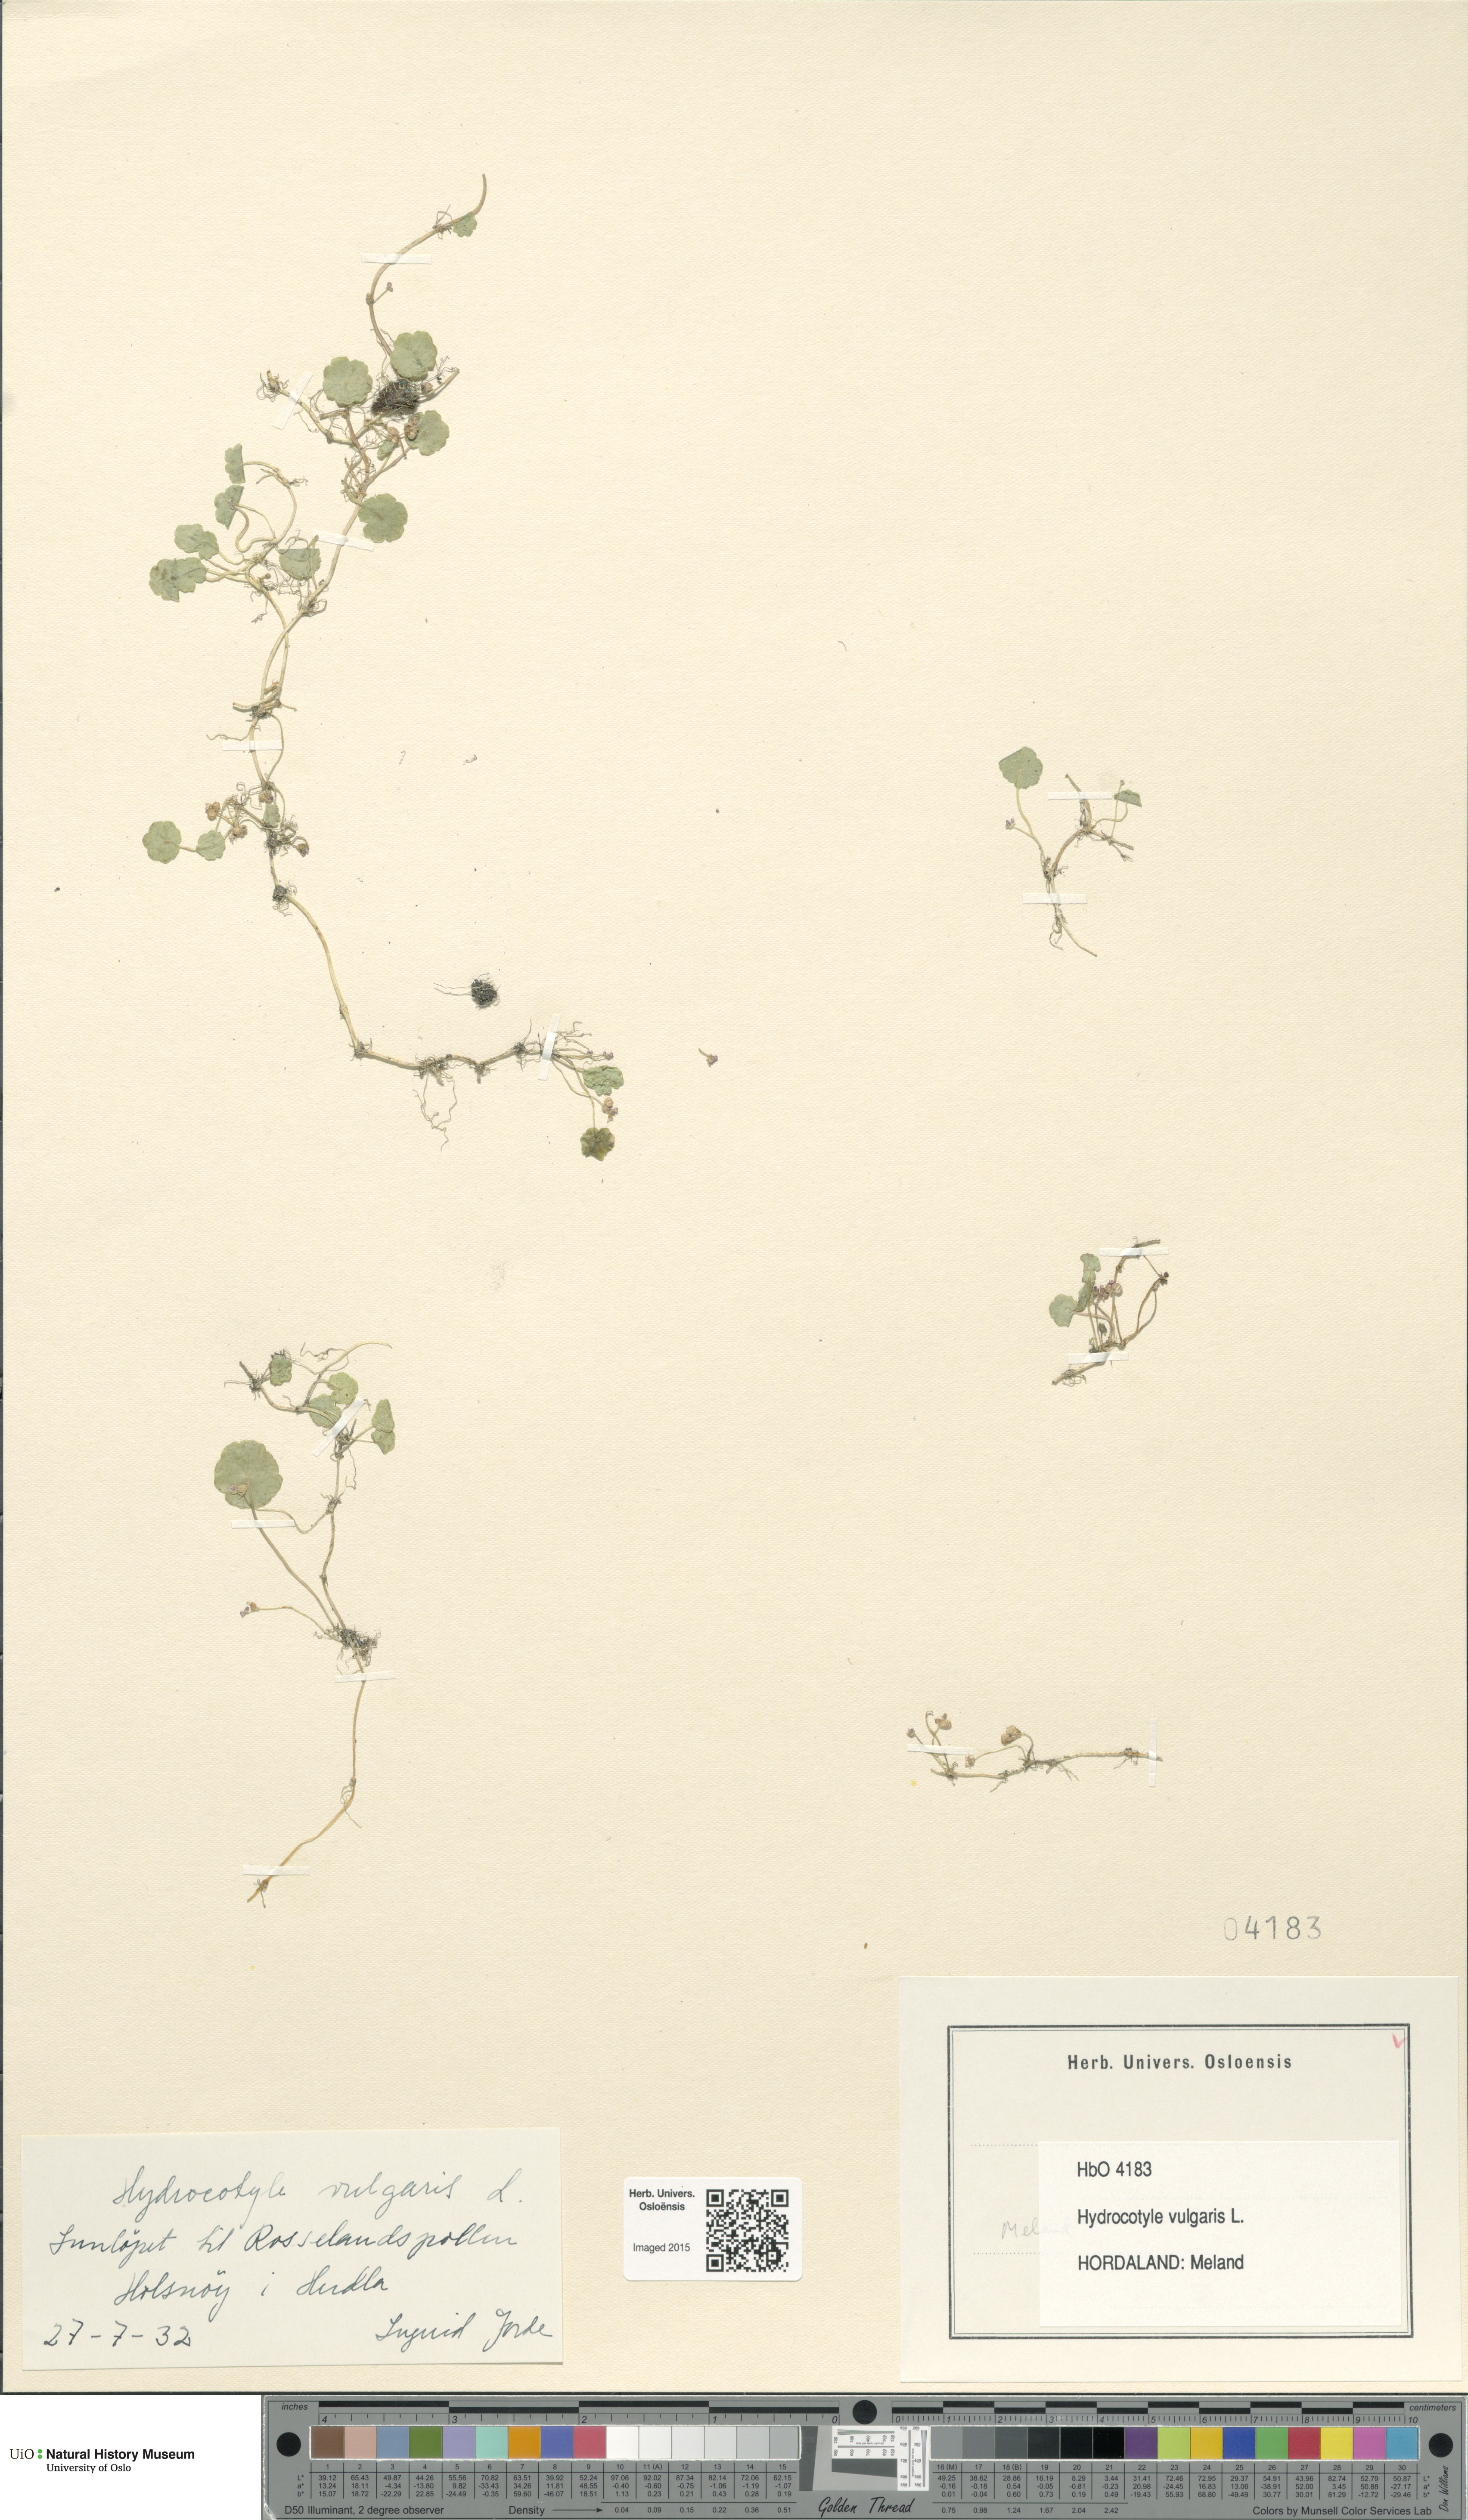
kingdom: Plantae
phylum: Tracheophyta
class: Magnoliopsida
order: Apiales
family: Araliaceae
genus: Hydrocotyle
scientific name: Hydrocotyle vulgaris
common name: Marsh pennywort
